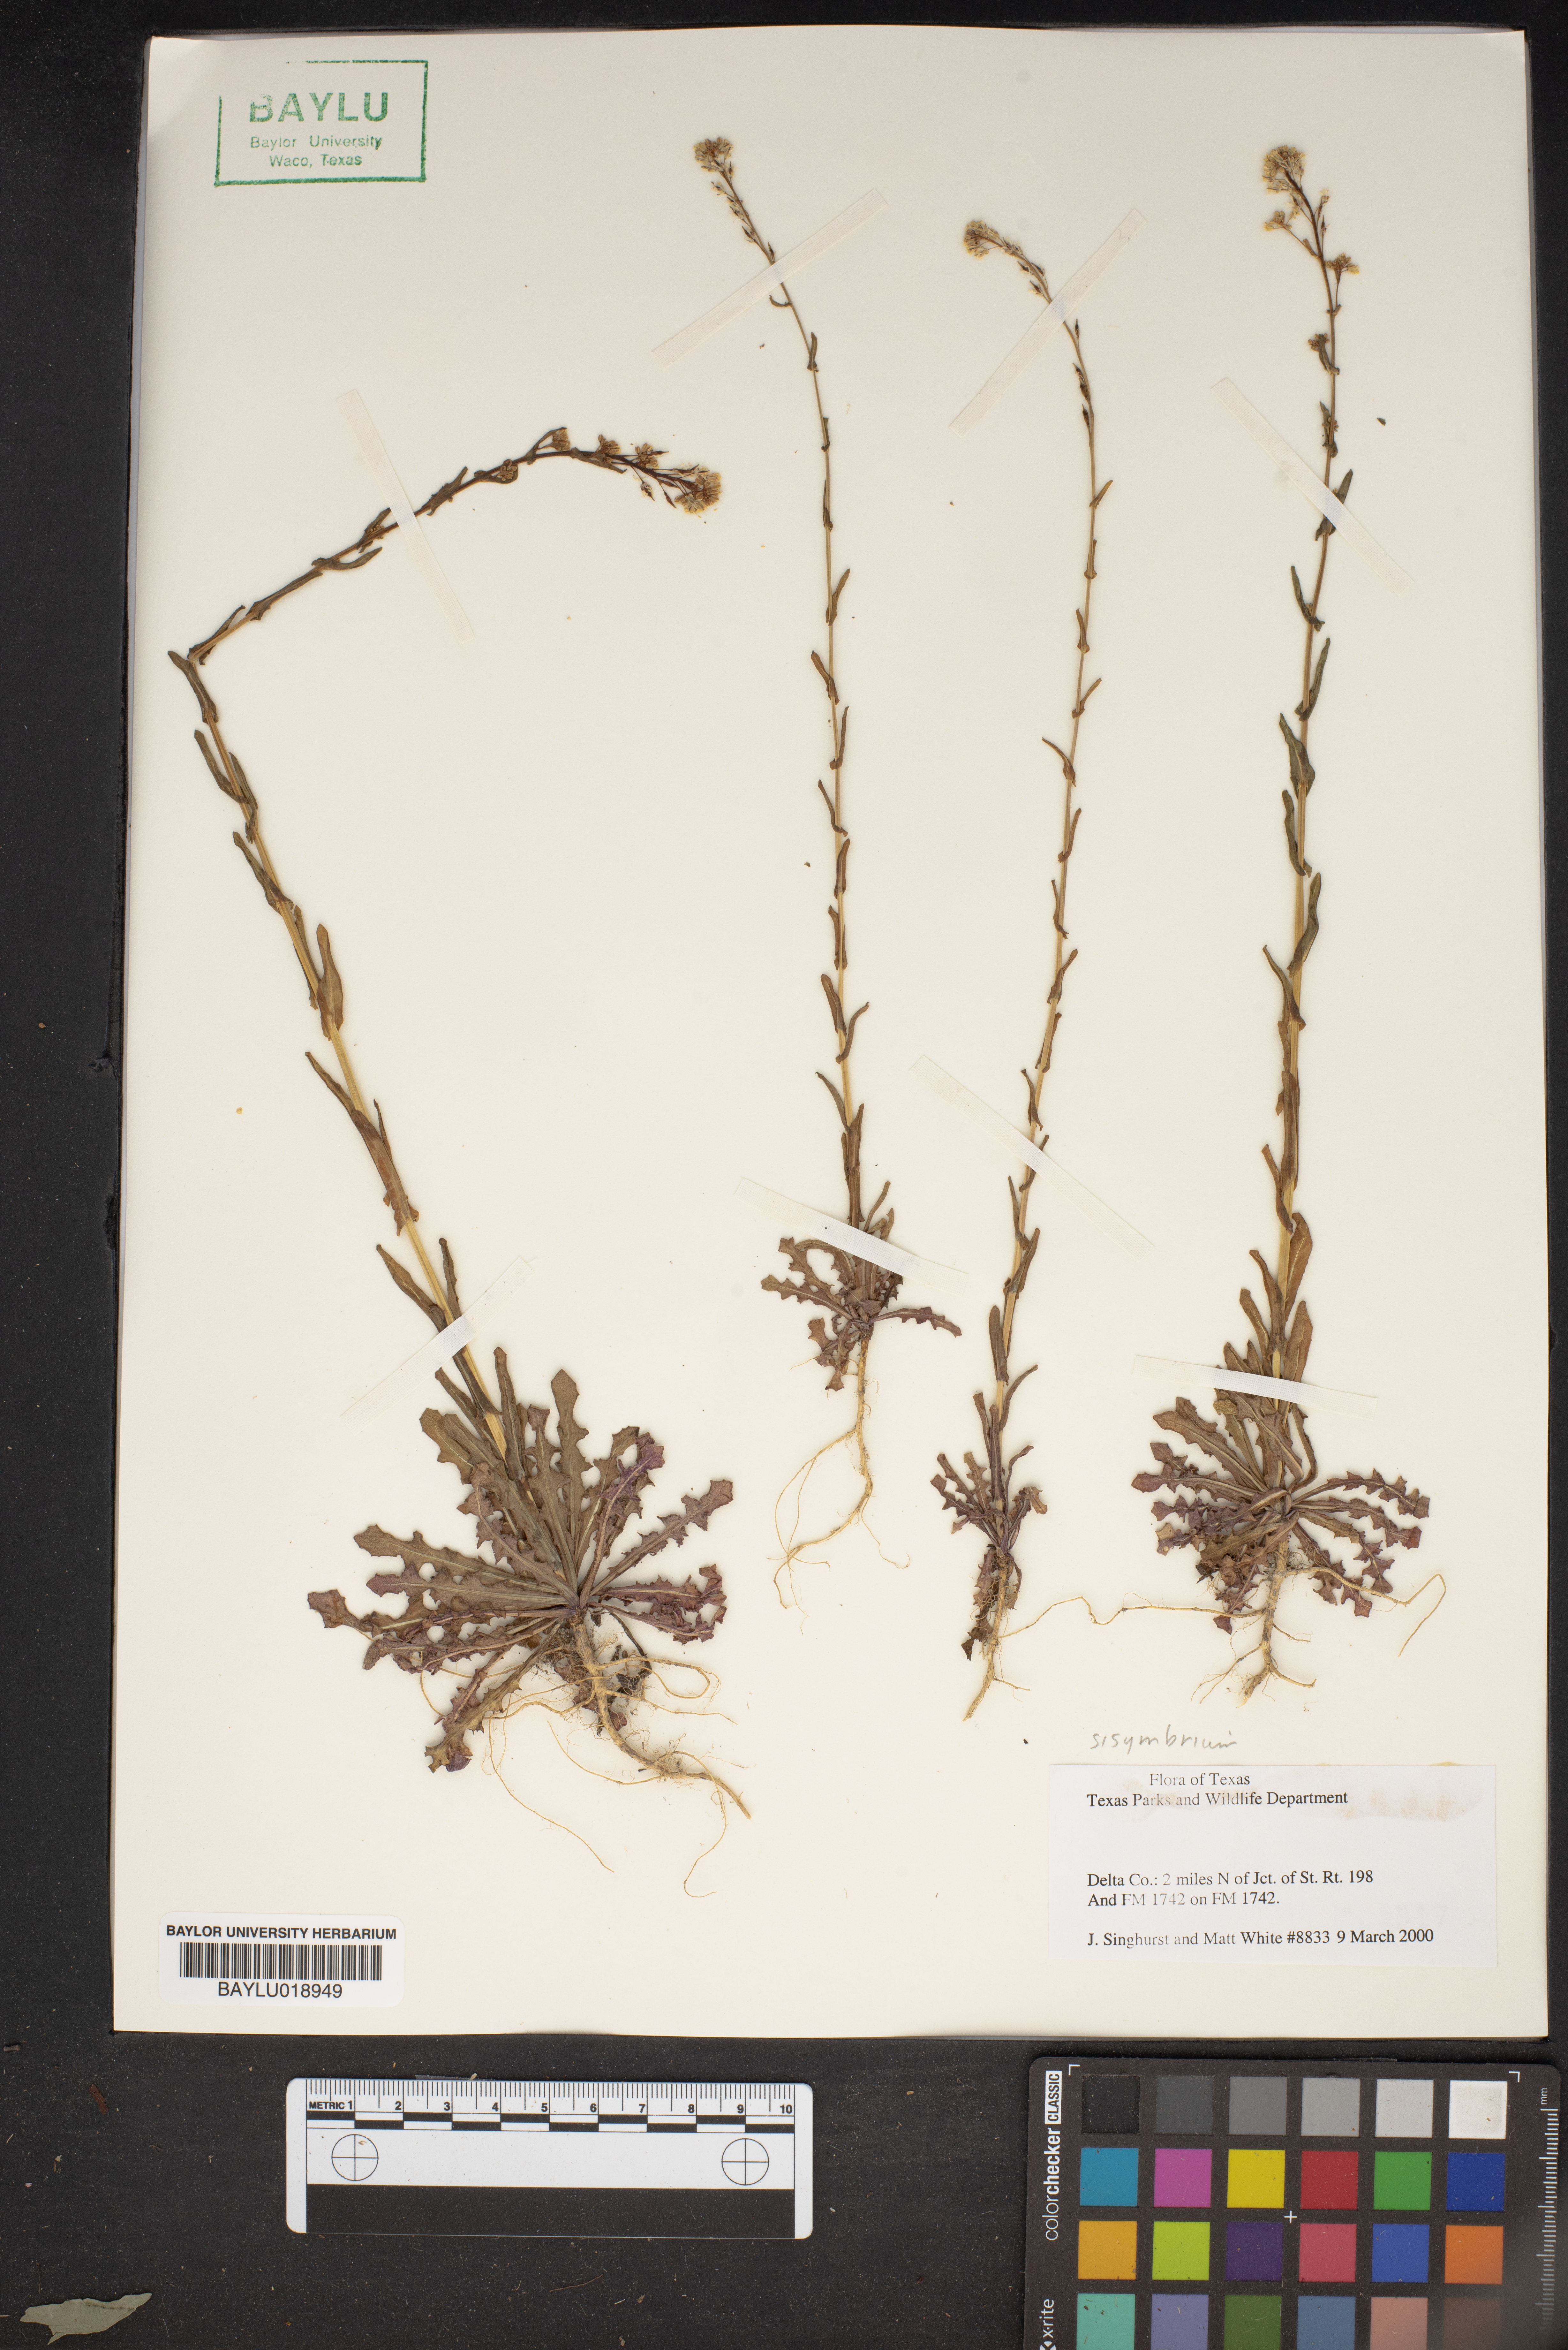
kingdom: Plantae
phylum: Tracheophyta
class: Magnoliopsida
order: Brassicales
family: Brassicaceae
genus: Sisymbrium
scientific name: Sisymbrium
